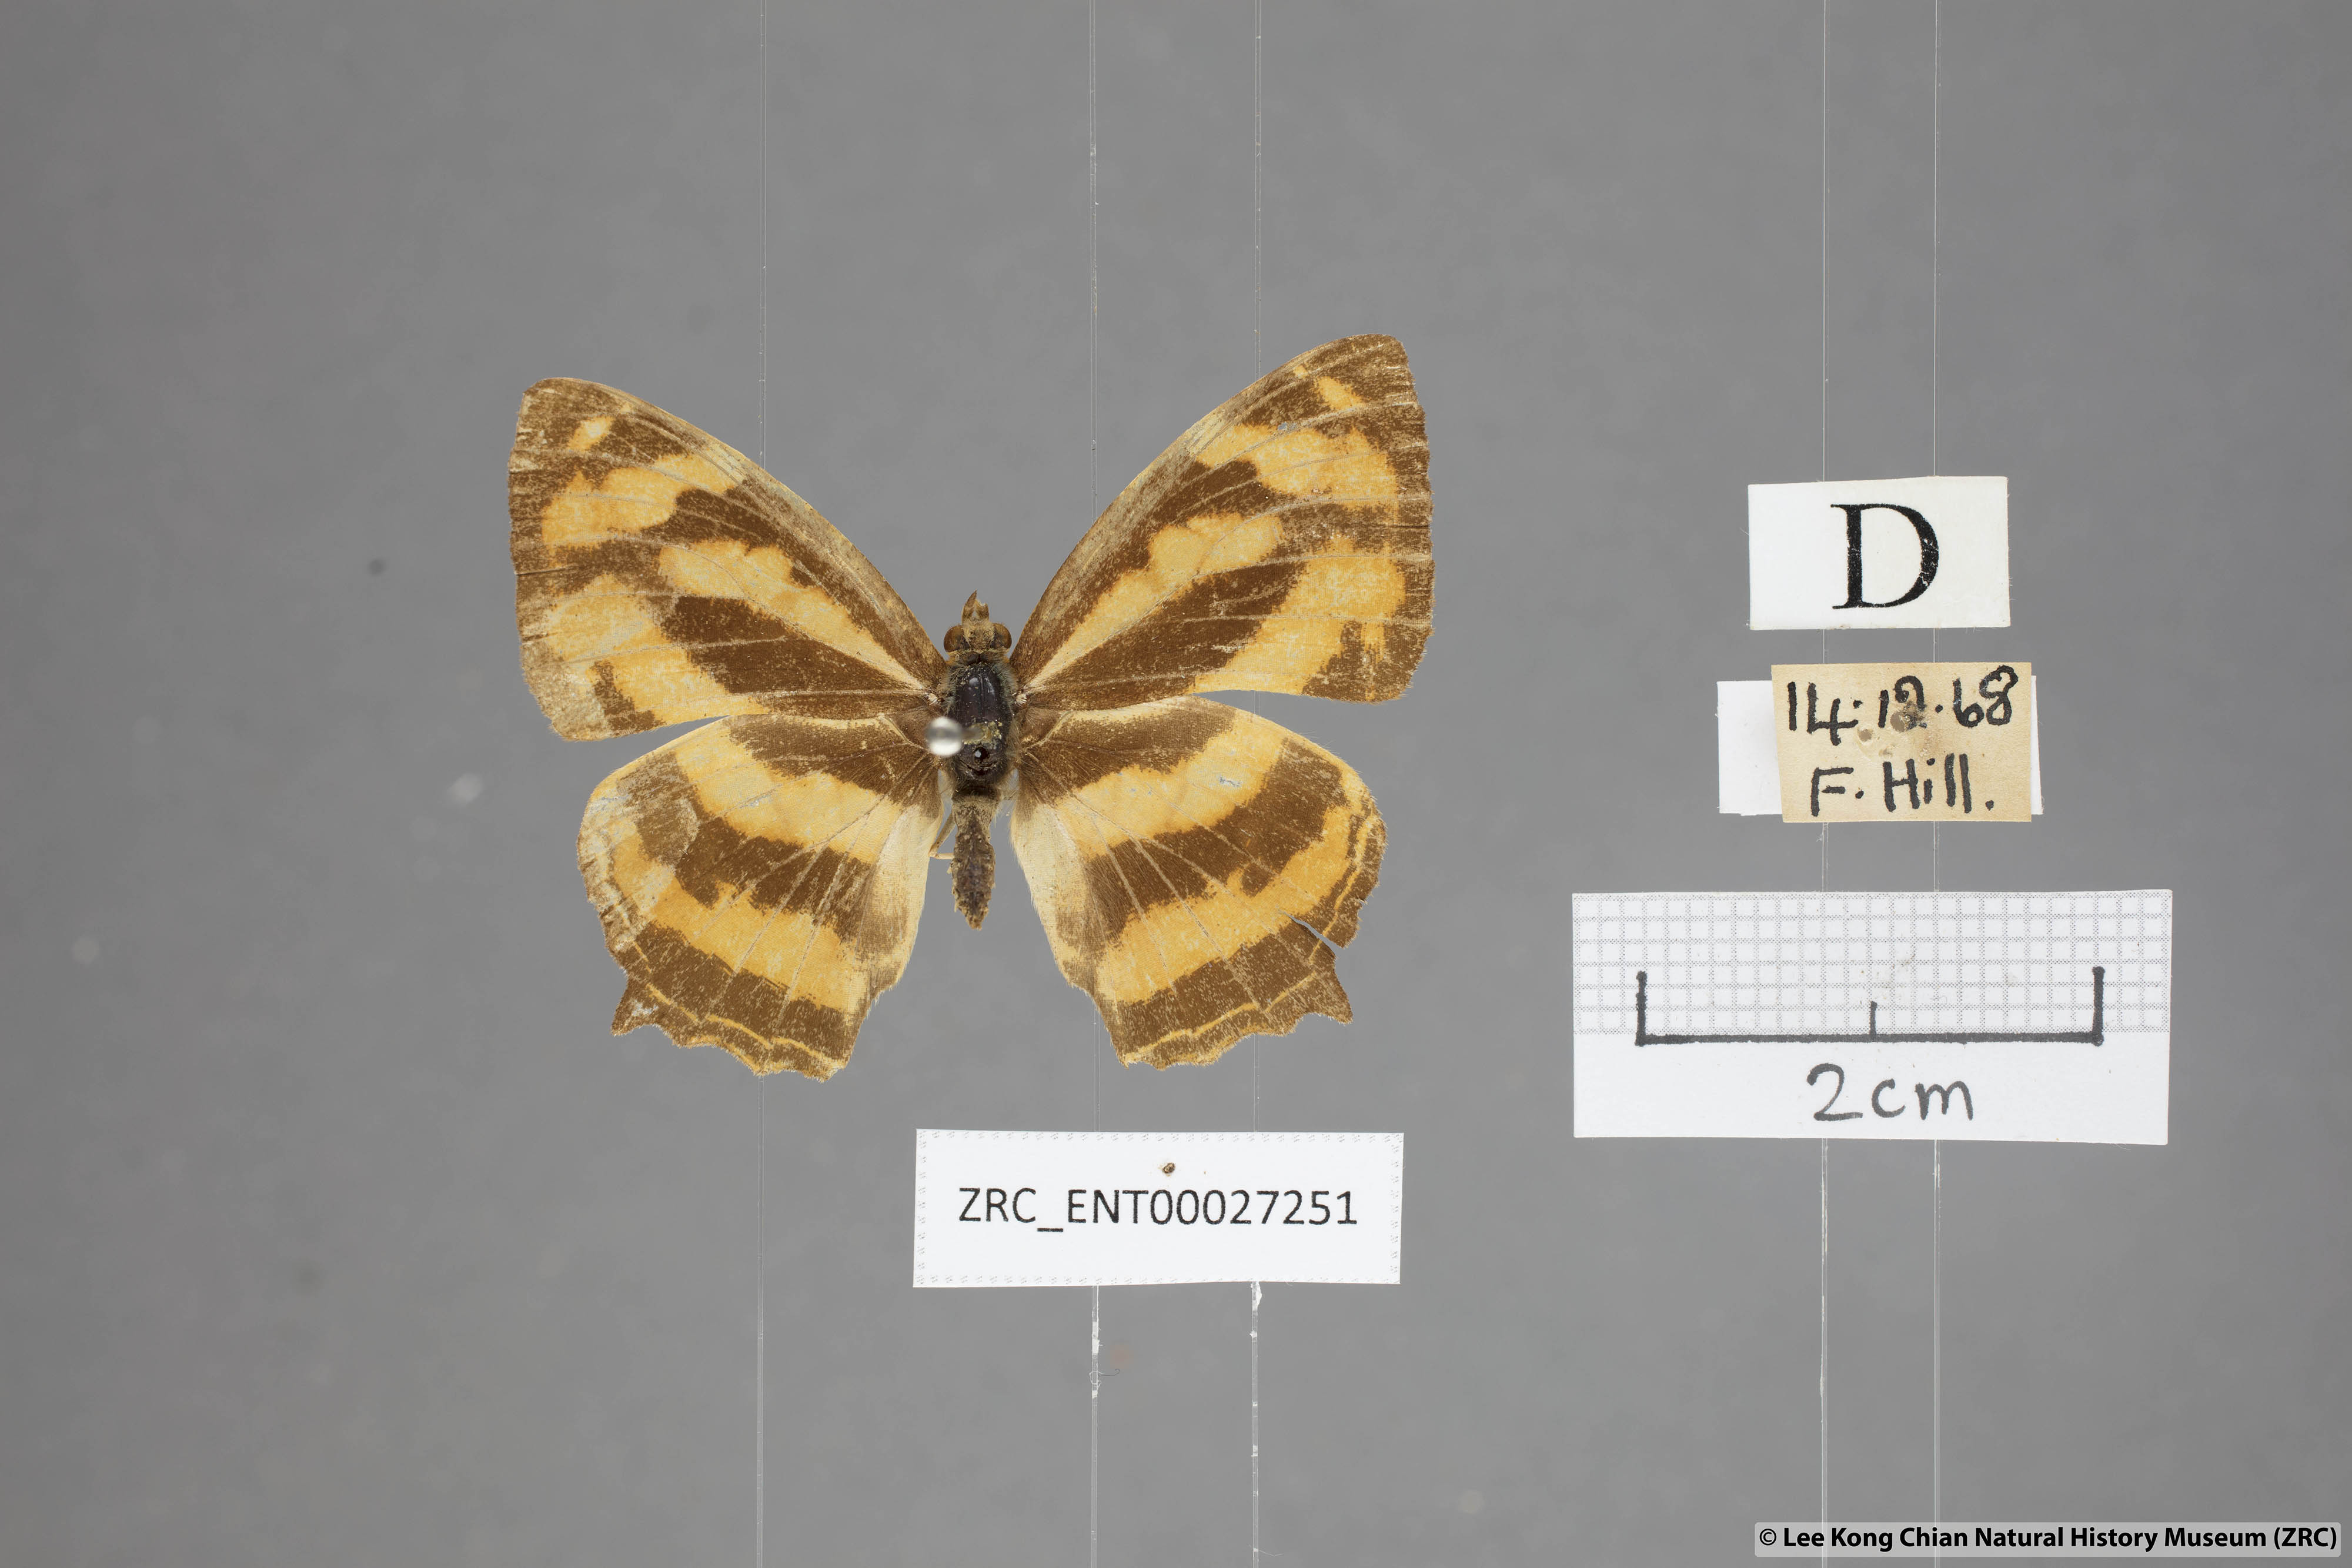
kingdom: Animalia
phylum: Arthropoda
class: Insecta
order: Lepidoptera
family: Nymphalidae
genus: Symbrenthia
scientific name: Symbrenthia hippoclus
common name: Common jester
